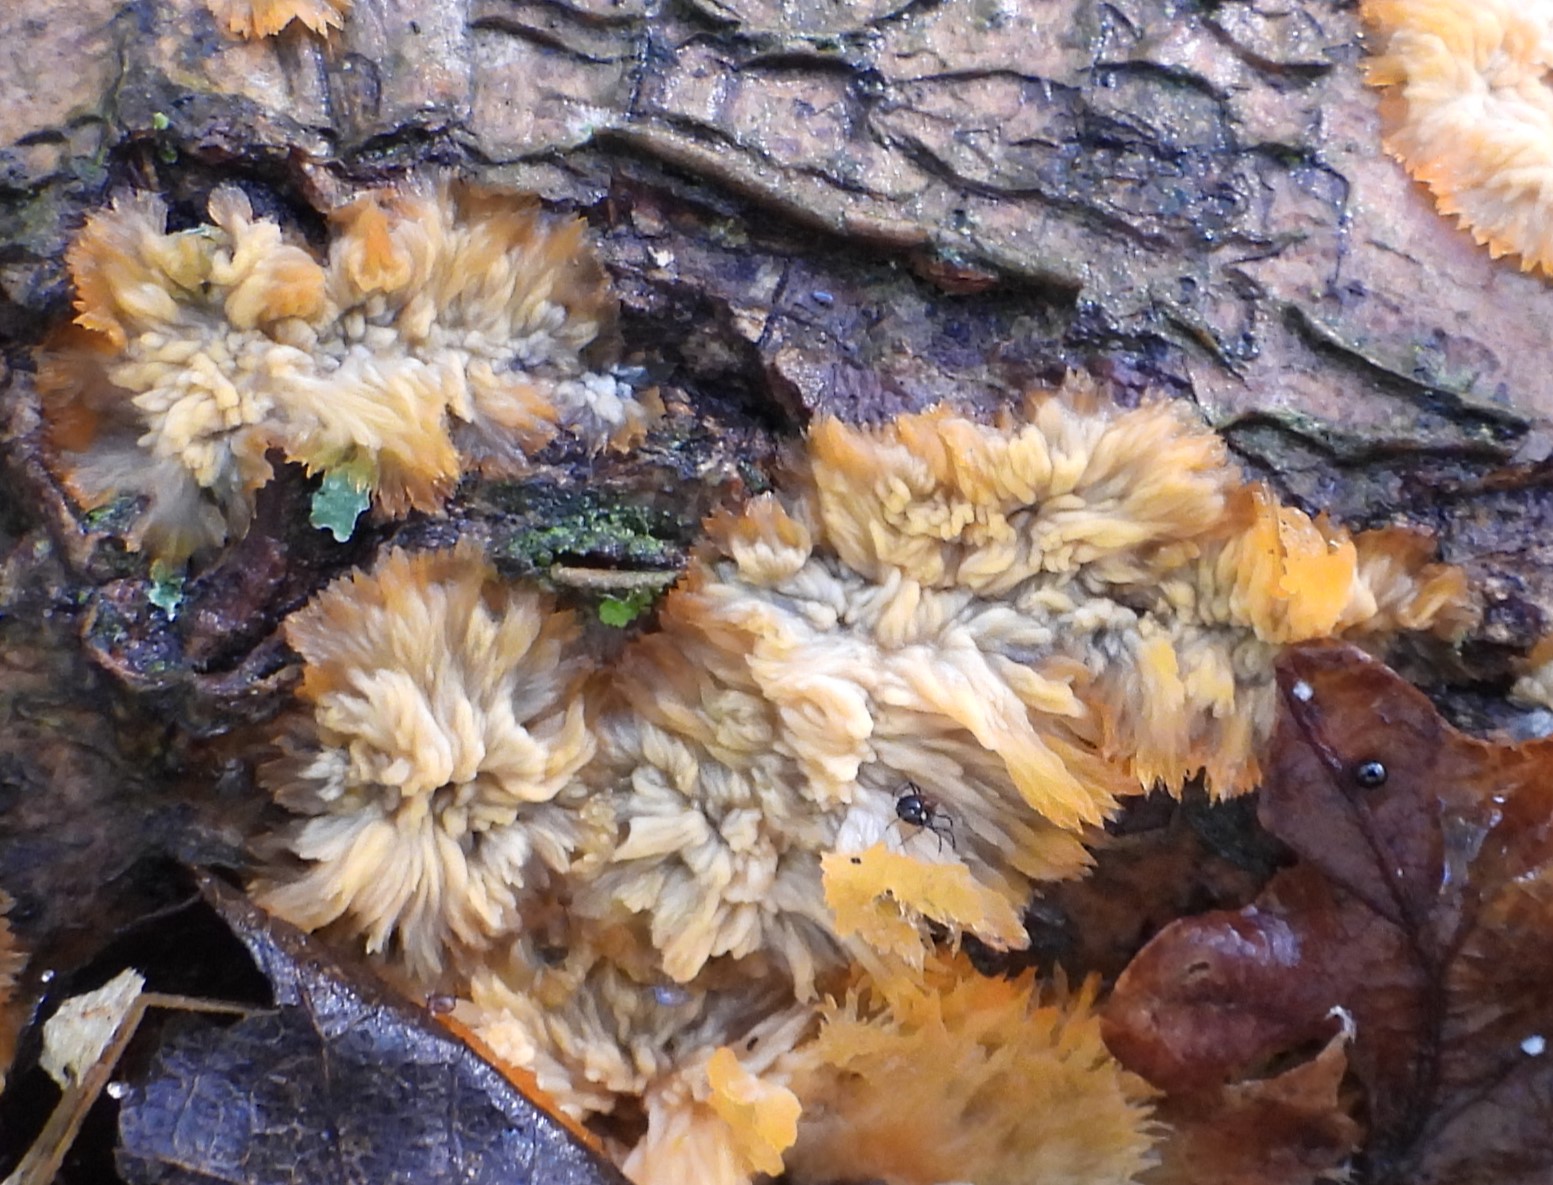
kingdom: Fungi
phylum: Basidiomycota
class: Agaricomycetes
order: Polyporales
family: Meruliaceae
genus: Phlebia
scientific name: Phlebia radiata
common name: stråle-åresvamp
